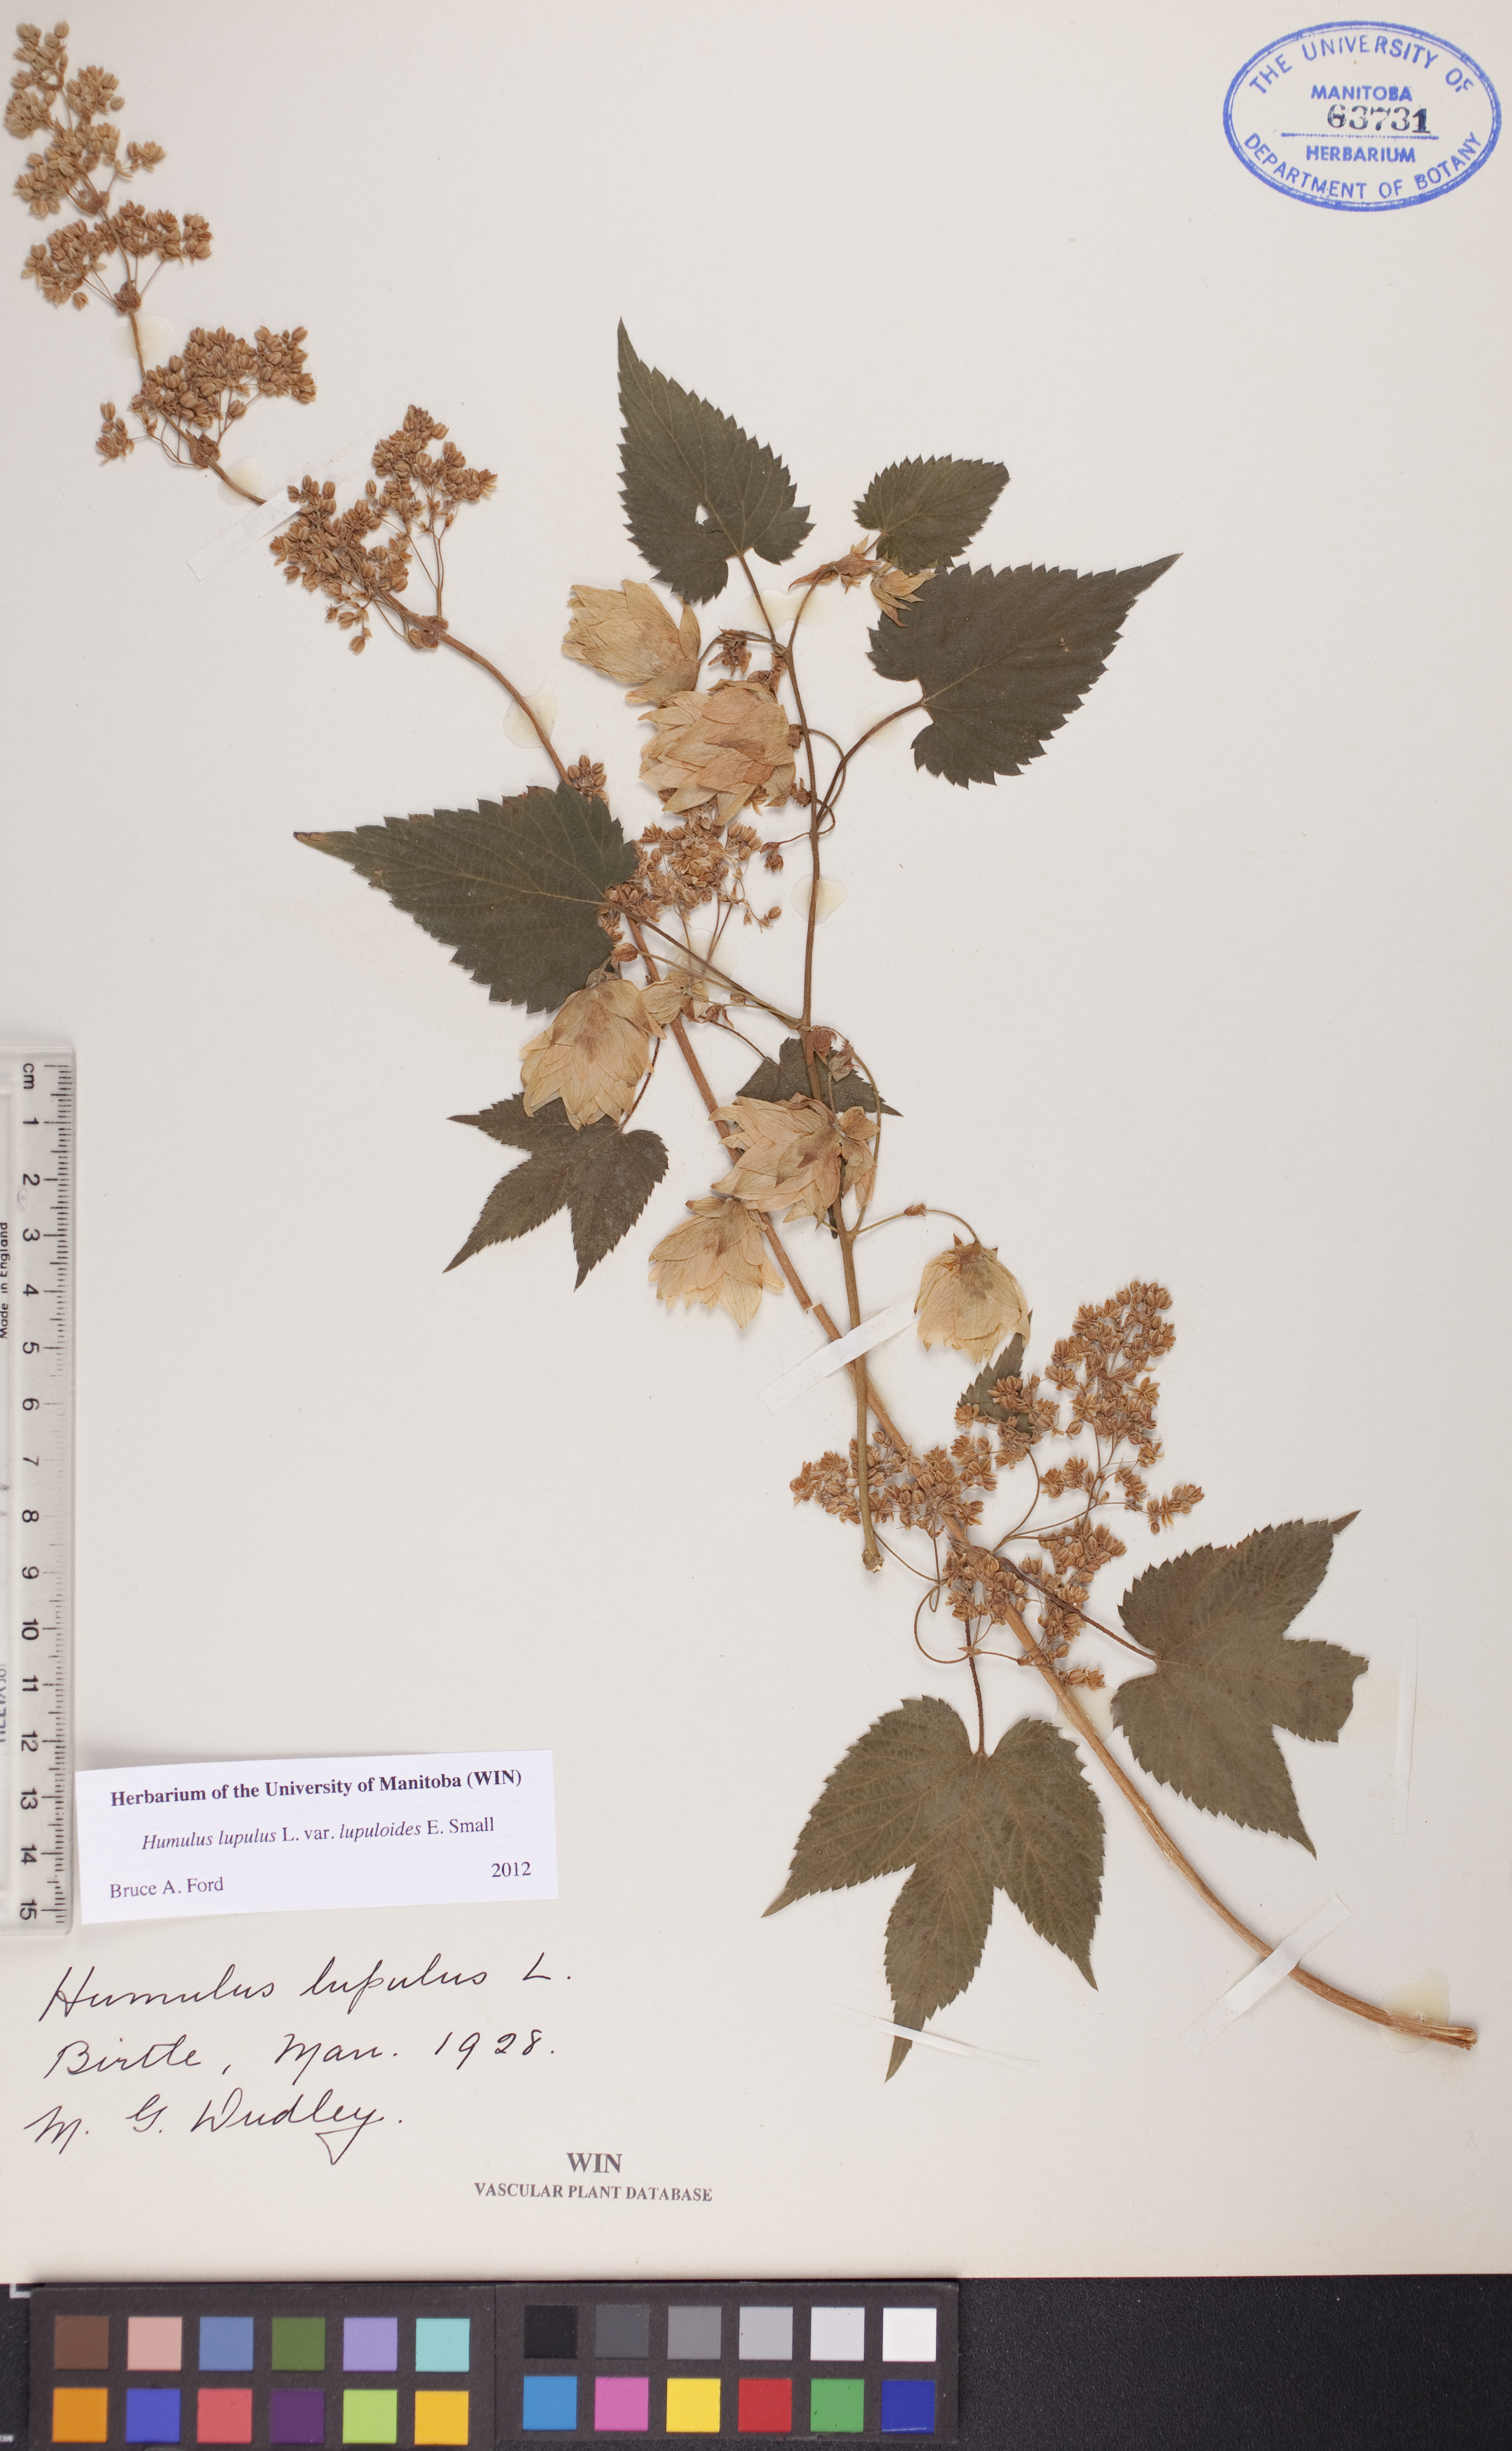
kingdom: Plantae
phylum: Tracheophyta
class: Magnoliopsida
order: Rosales
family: Cannabaceae
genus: Humulus
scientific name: Humulus americanus
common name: American hops
